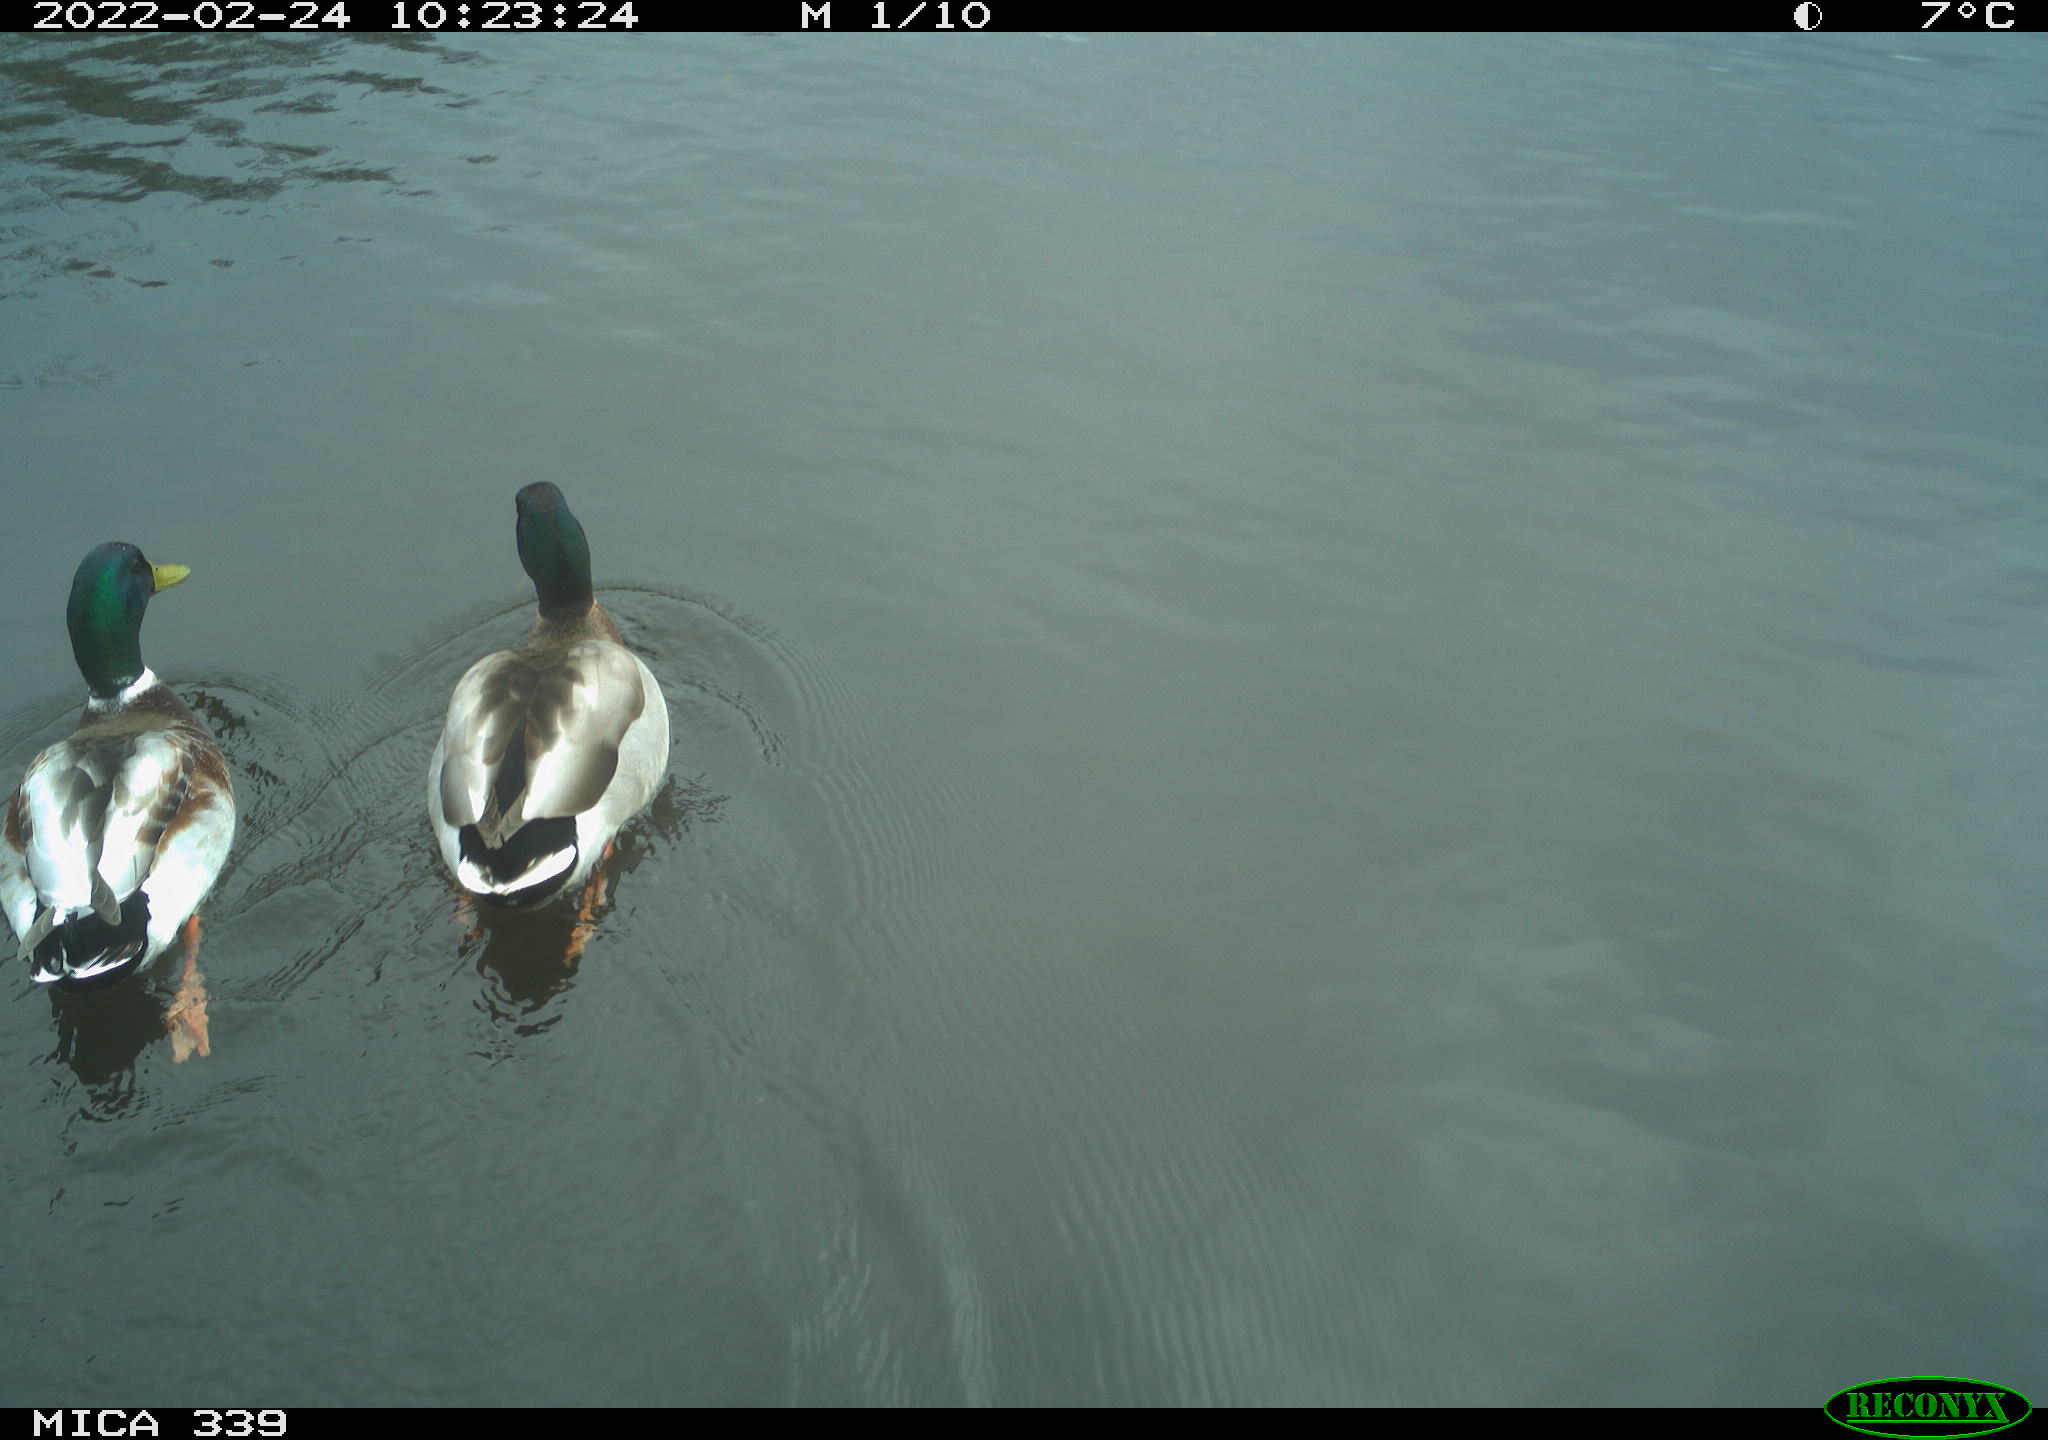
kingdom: Animalia
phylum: Chordata
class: Aves
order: Anseriformes
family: Anatidae
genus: Anas
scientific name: Anas platyrhynchos
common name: Mallard
